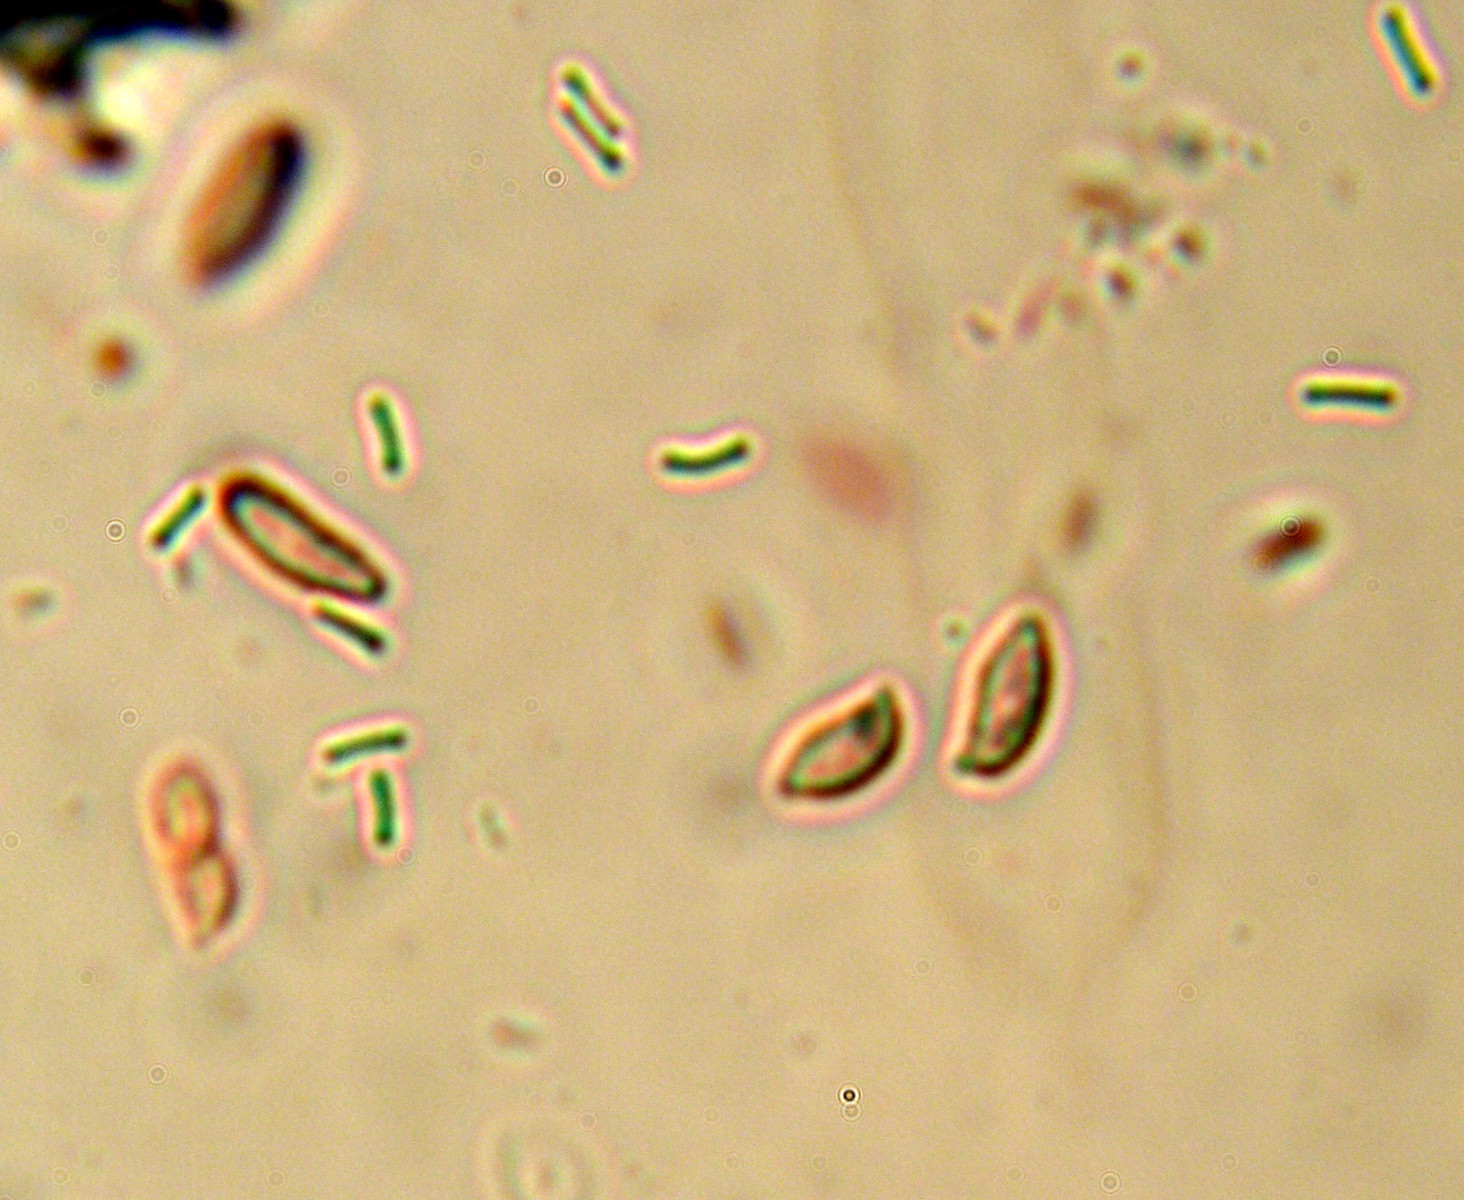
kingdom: Fungi
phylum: Basidiomycota
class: Agaricomycetes
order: Cantharellales
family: Botryobasidiaceae
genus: Botryobasidium
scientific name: Botryobasidium subcoronatum
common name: almindelig spindhinde
